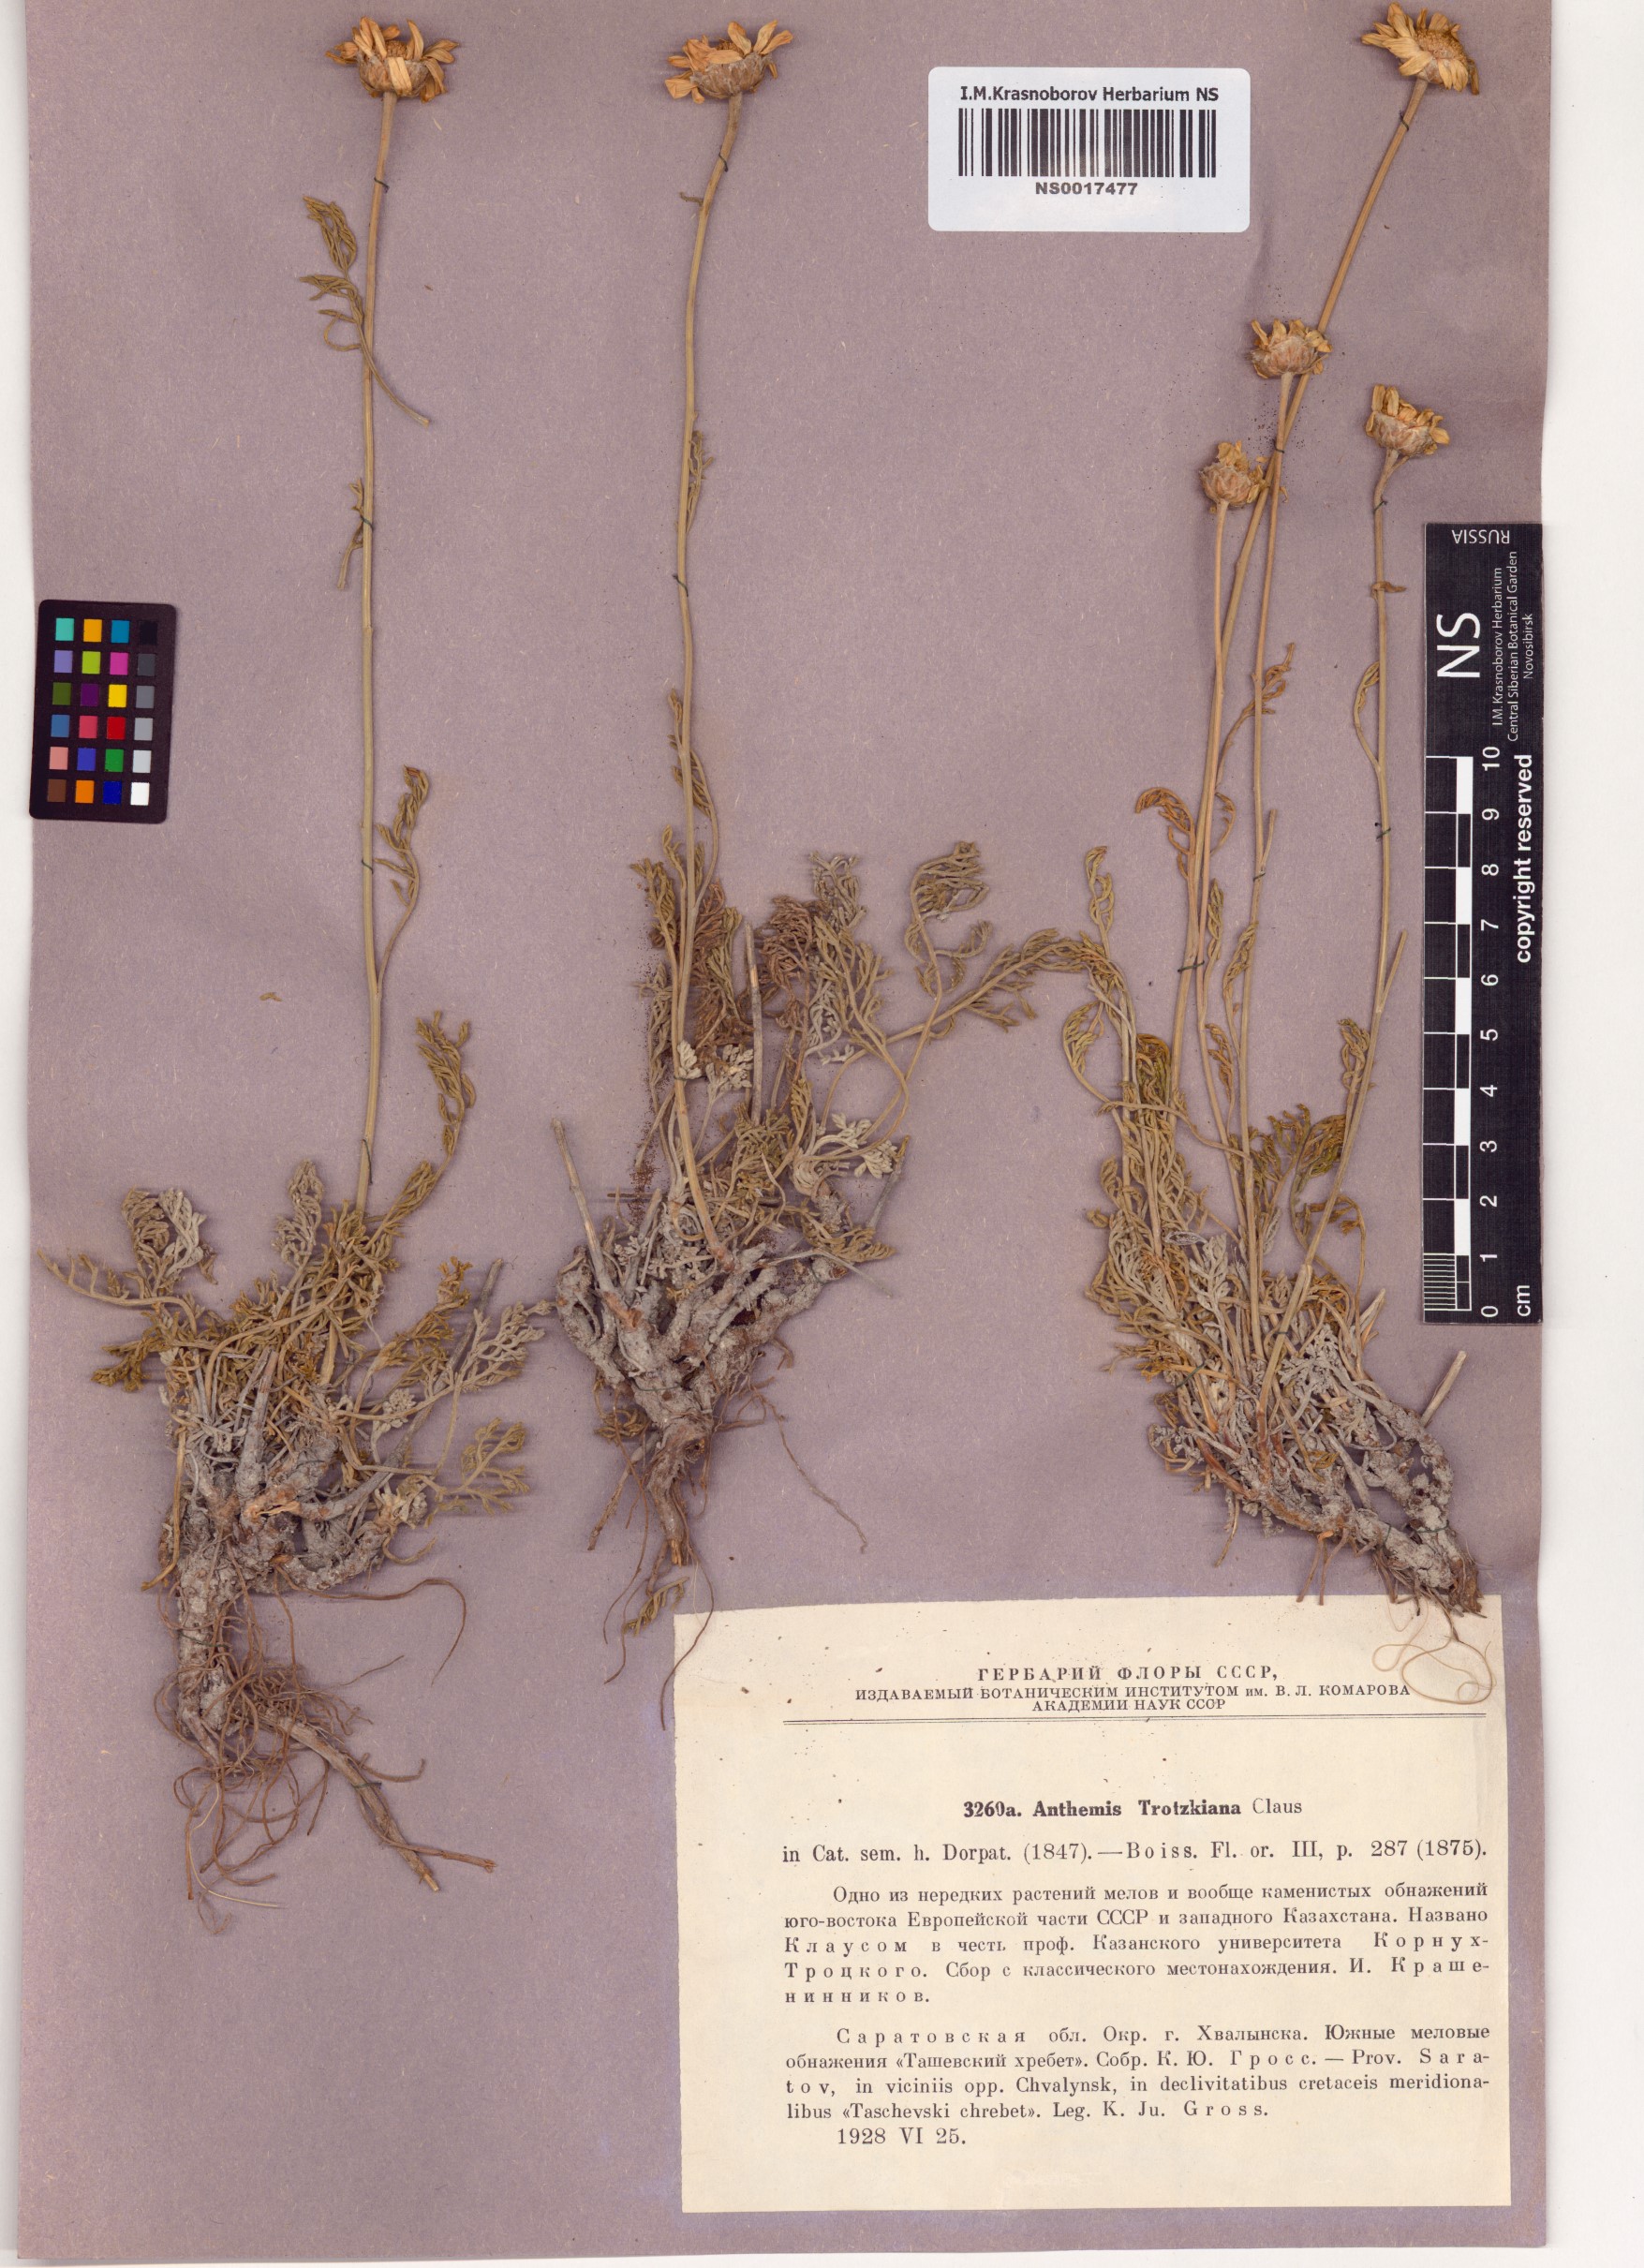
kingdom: Plantae
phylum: Tracheophyta
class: Magnoliopsida
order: Asterales
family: Asteraceae
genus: Archanthemis
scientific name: Archanthemis trotzkiana
